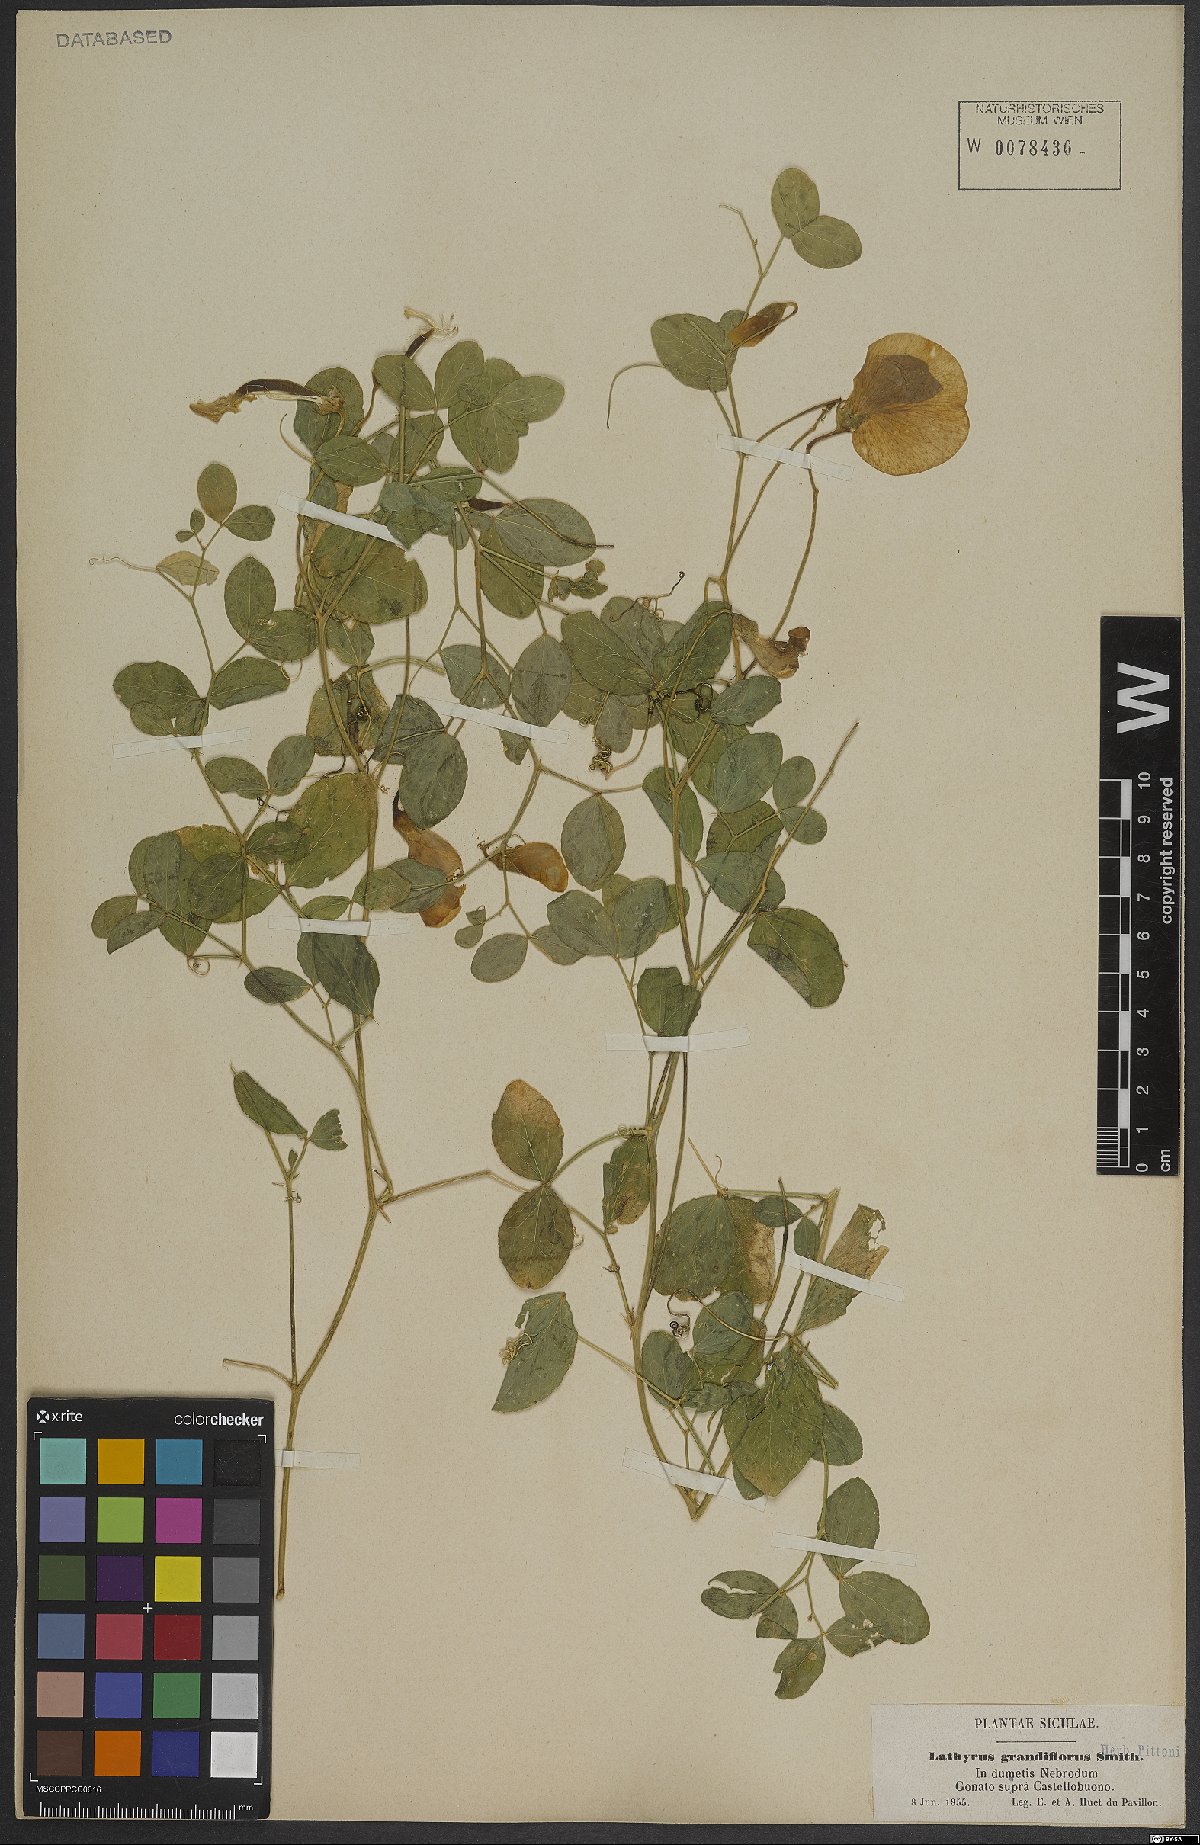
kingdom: Plantae
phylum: Tracheophyta
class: Magnoliopsida
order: Fabales
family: Fabaceae
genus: Lathyrus
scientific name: Lathyrus grandiflorus
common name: Two-flowered everlasting-pea
